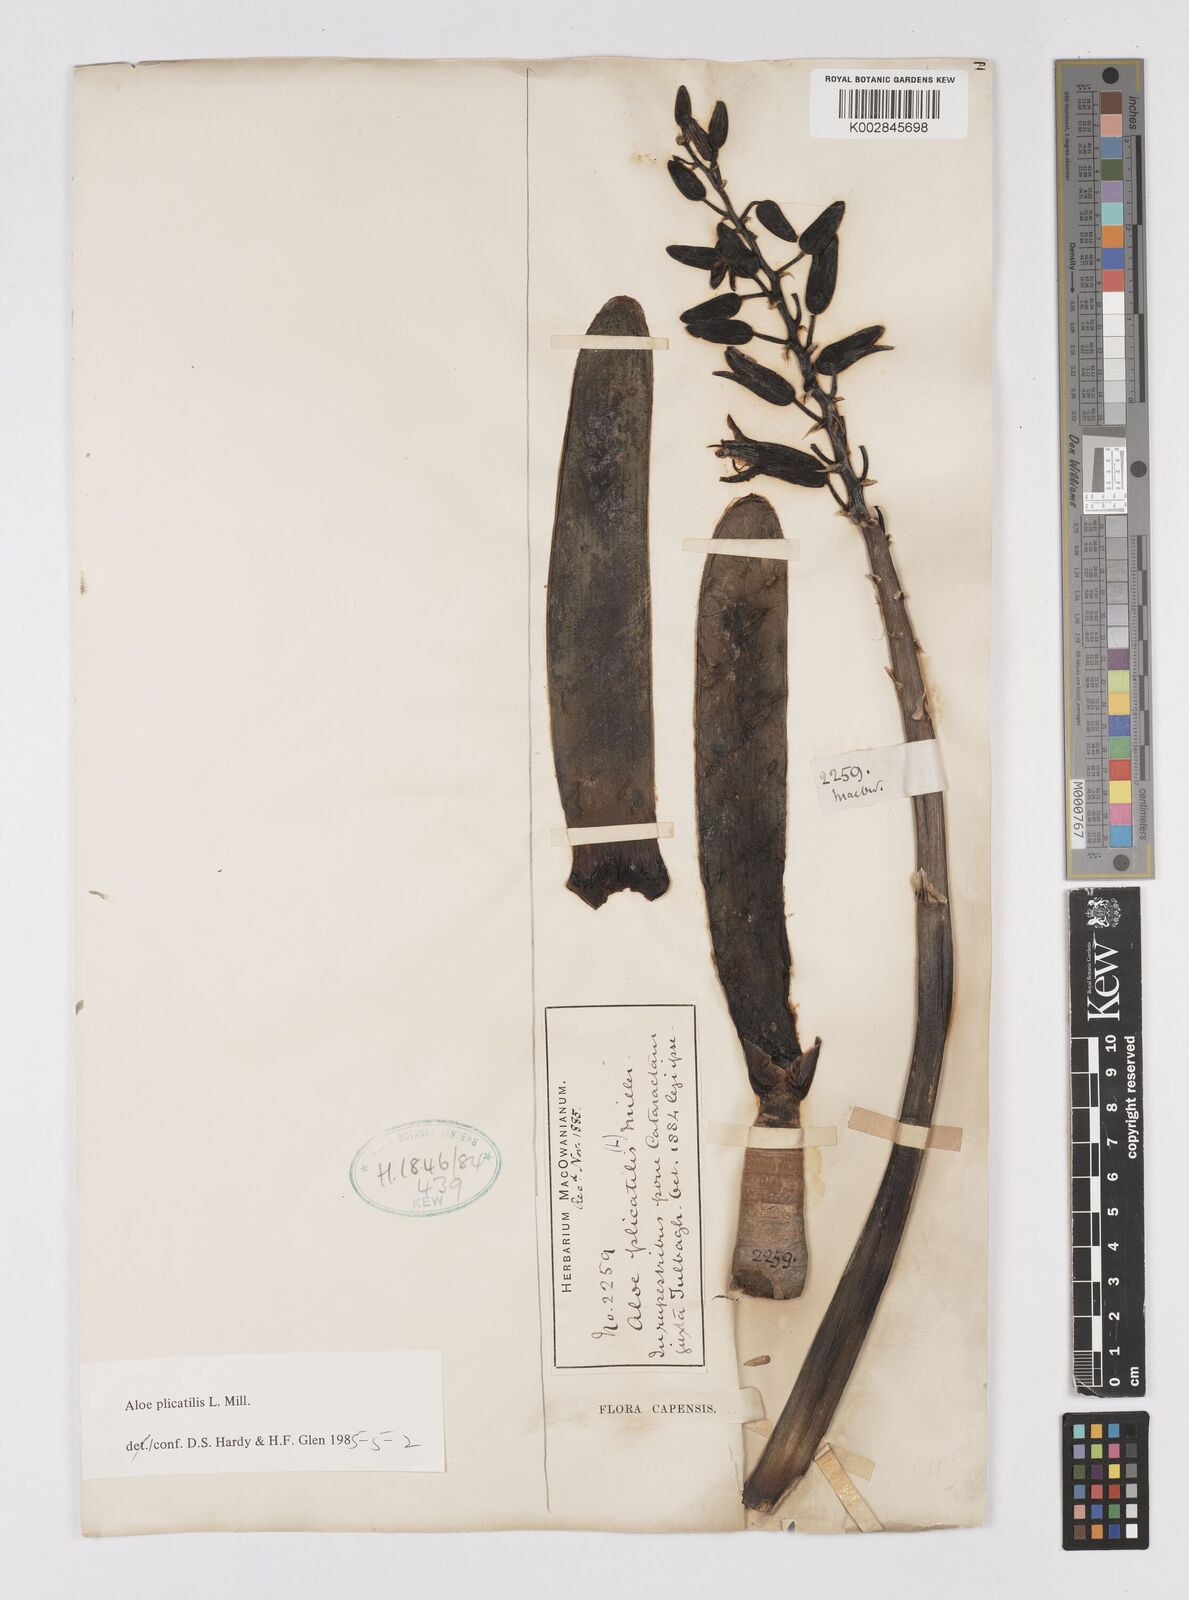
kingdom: Plantae
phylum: Tracheophyta
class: Liliopsida
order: Asparagales
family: Asphodelaceae
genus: Kumara
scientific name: Kumara plicatilis
